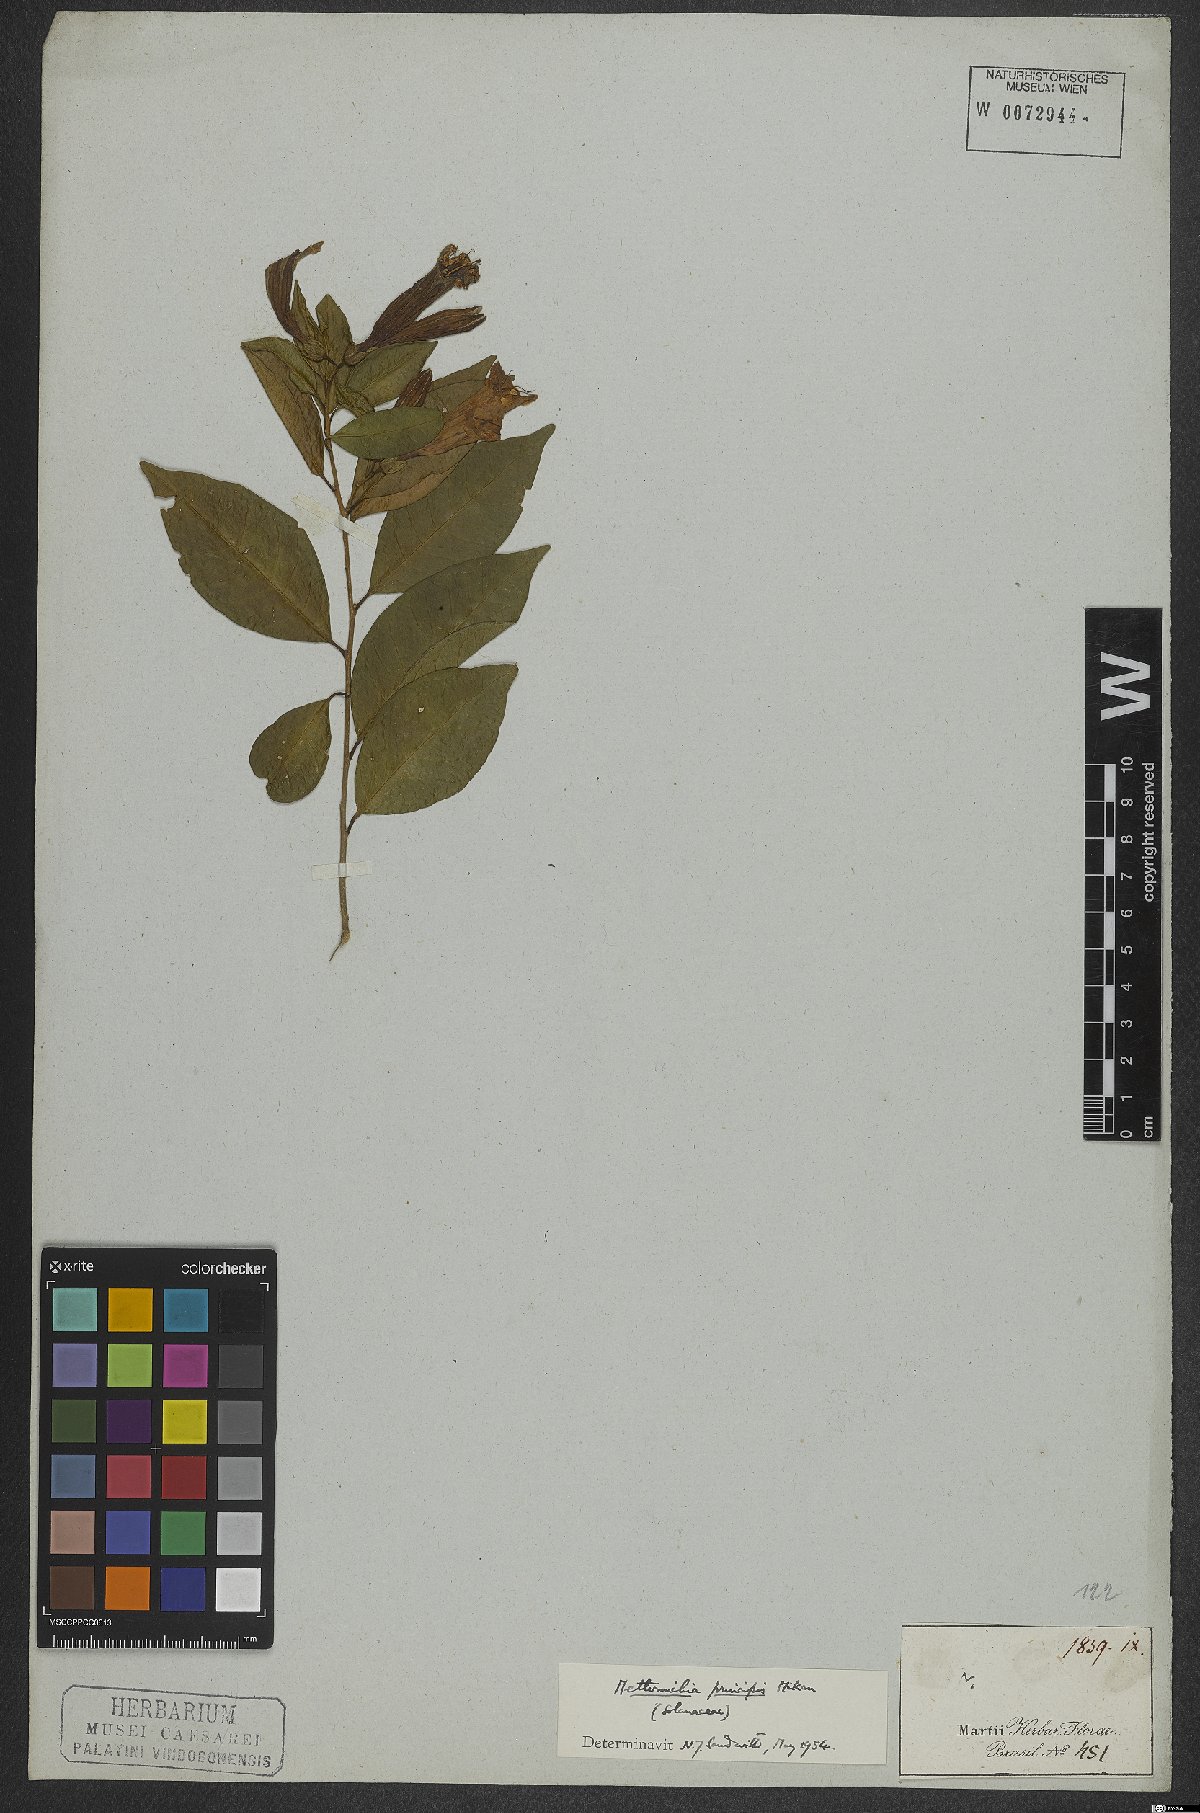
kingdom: Plantae
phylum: Tracheophyta
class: Magnoliopsida
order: Solanales
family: Solanaceae
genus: Metternichia
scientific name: Metternichia principis
